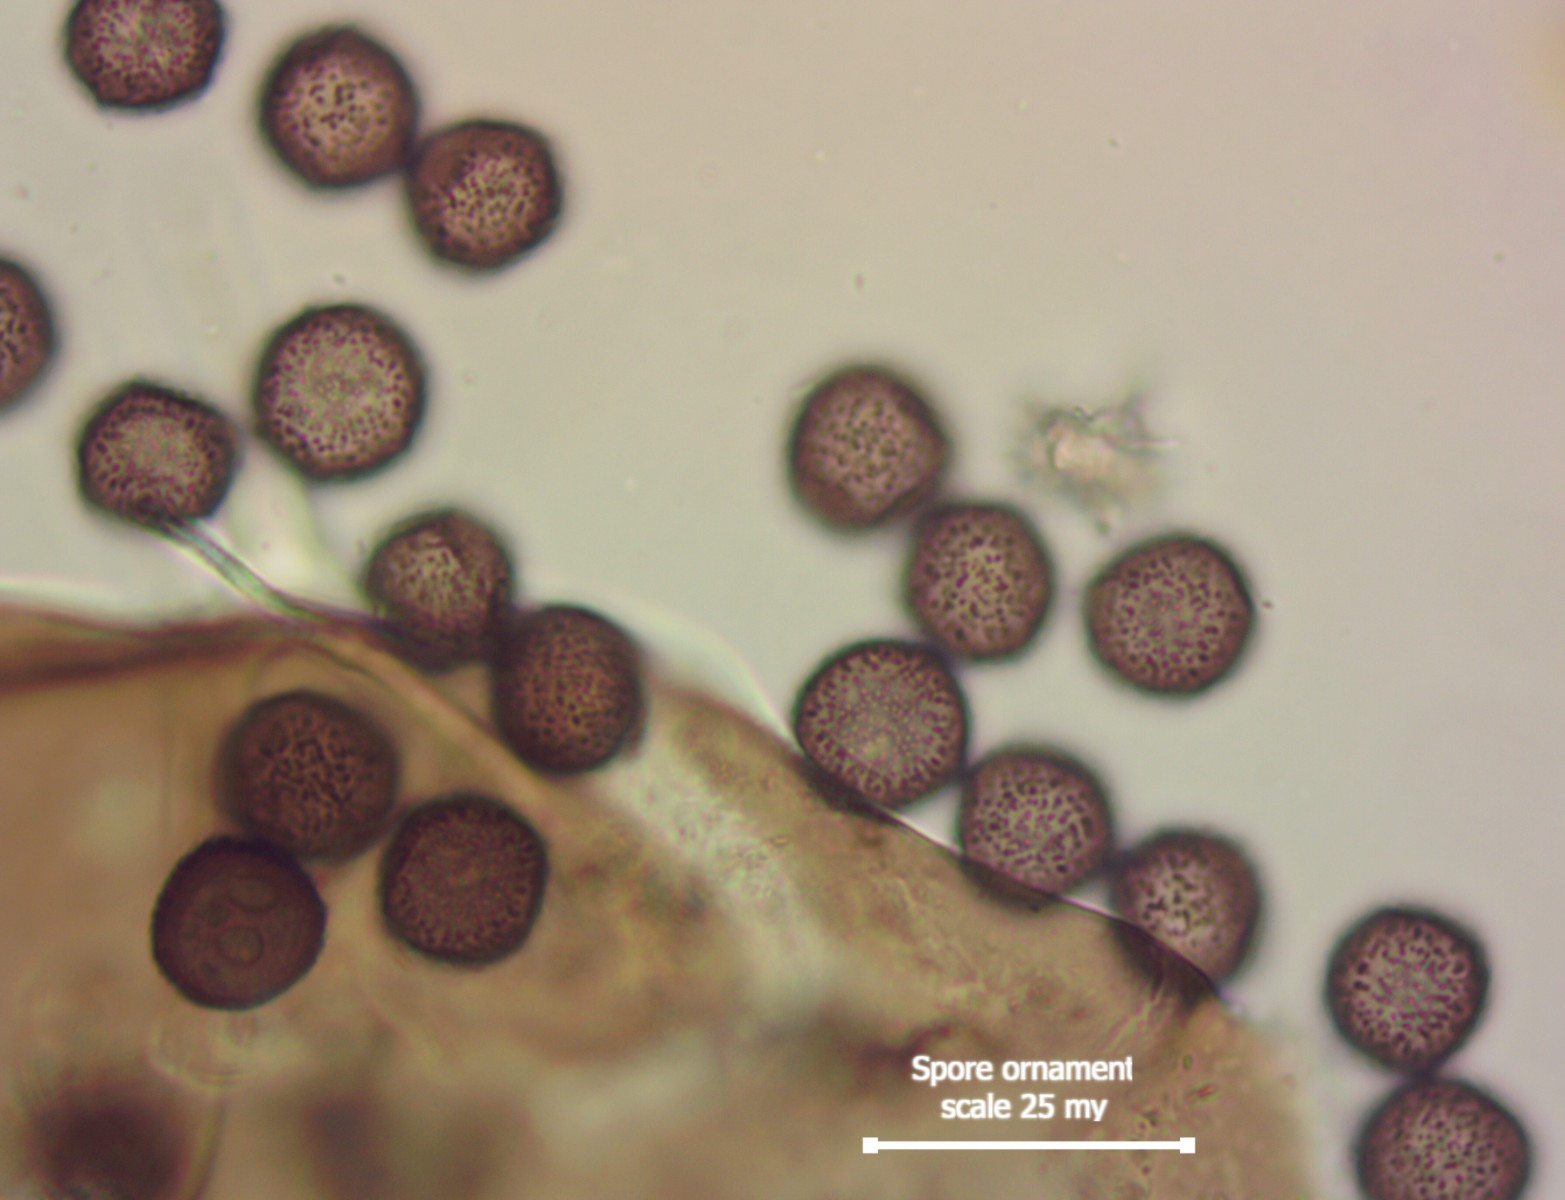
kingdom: Protozoa
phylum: Mycetozoa
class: Myxomycetes
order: Physarales
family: Didymiaceae
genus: Didymium
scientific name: Didymium melanospermum
